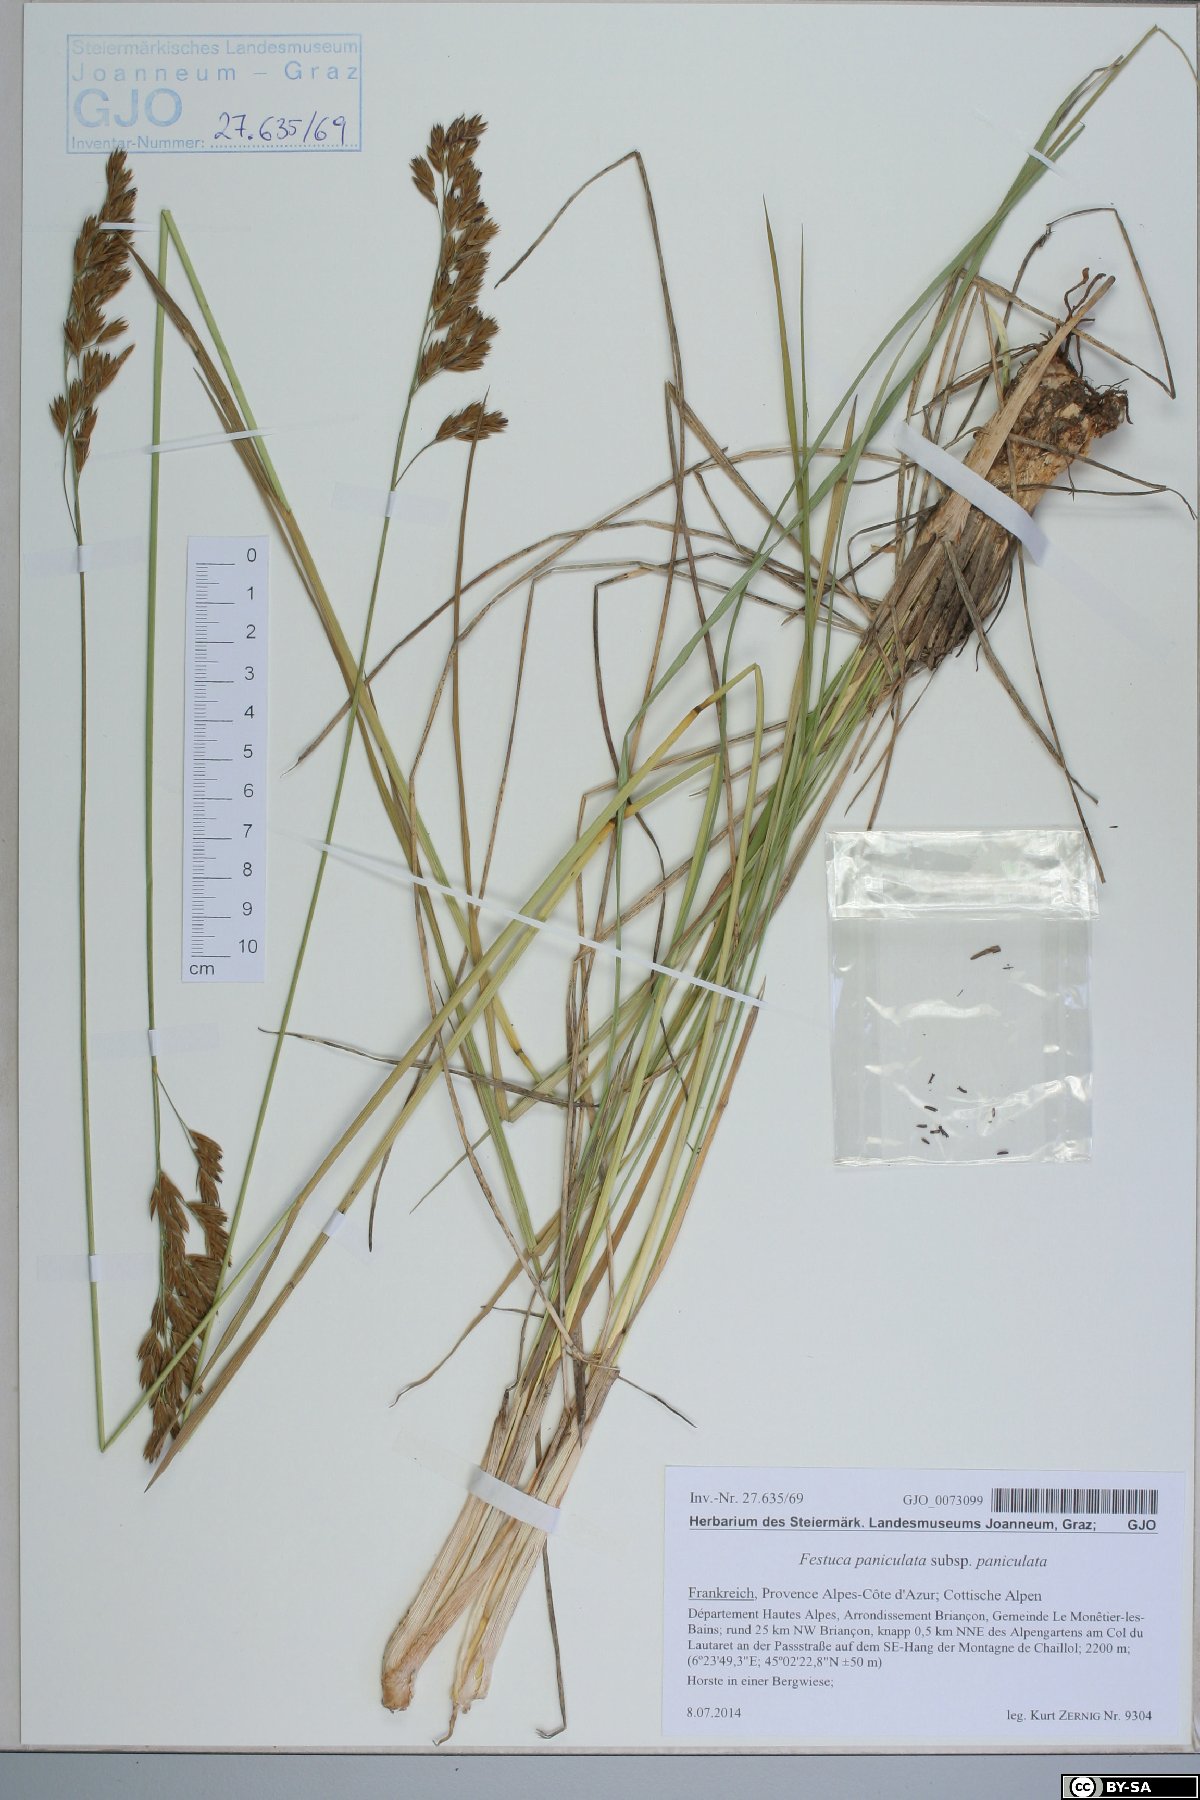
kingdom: Plantae
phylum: Tracheophyta
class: Liliopsida
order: Poales
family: Poaceae
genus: Patzkea
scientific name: Patzkea paniculata
